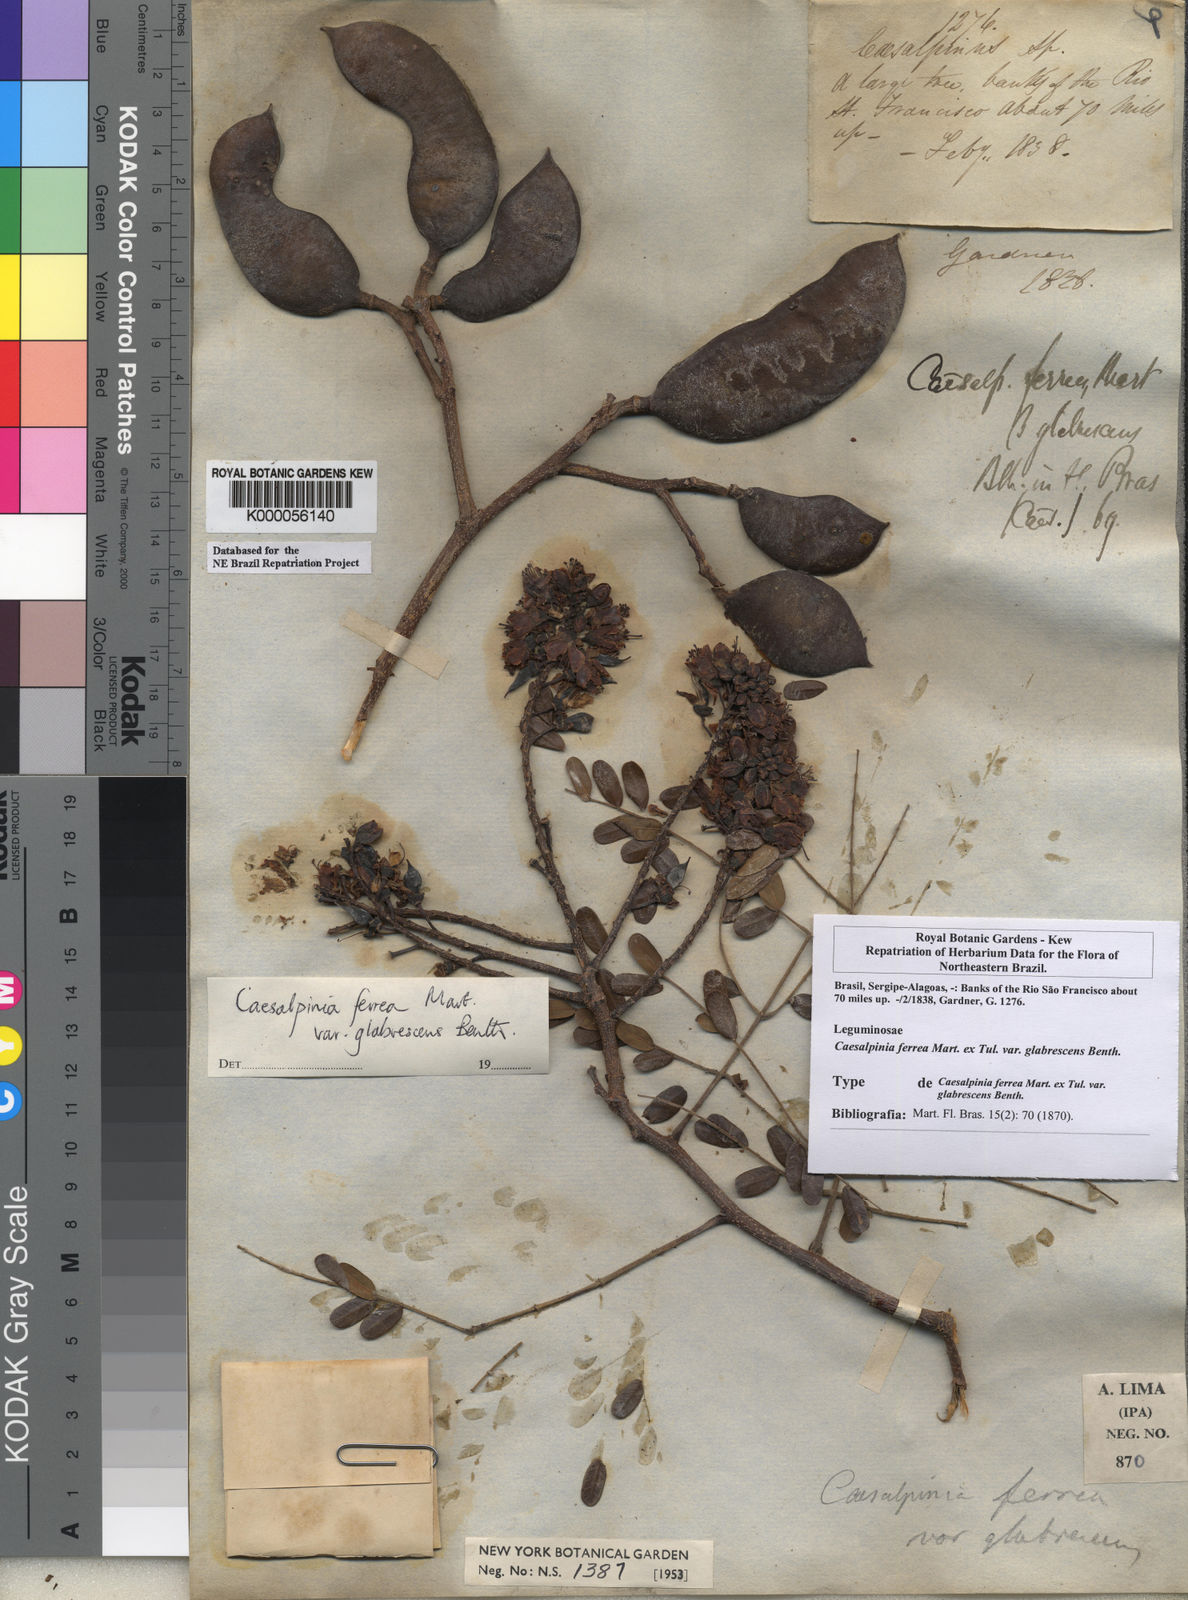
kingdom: Plantae
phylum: Tracheophyta
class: Magnoliopsida
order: Fabales
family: Fabaceae
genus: Libidibia
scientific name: Libidibia ferrea
